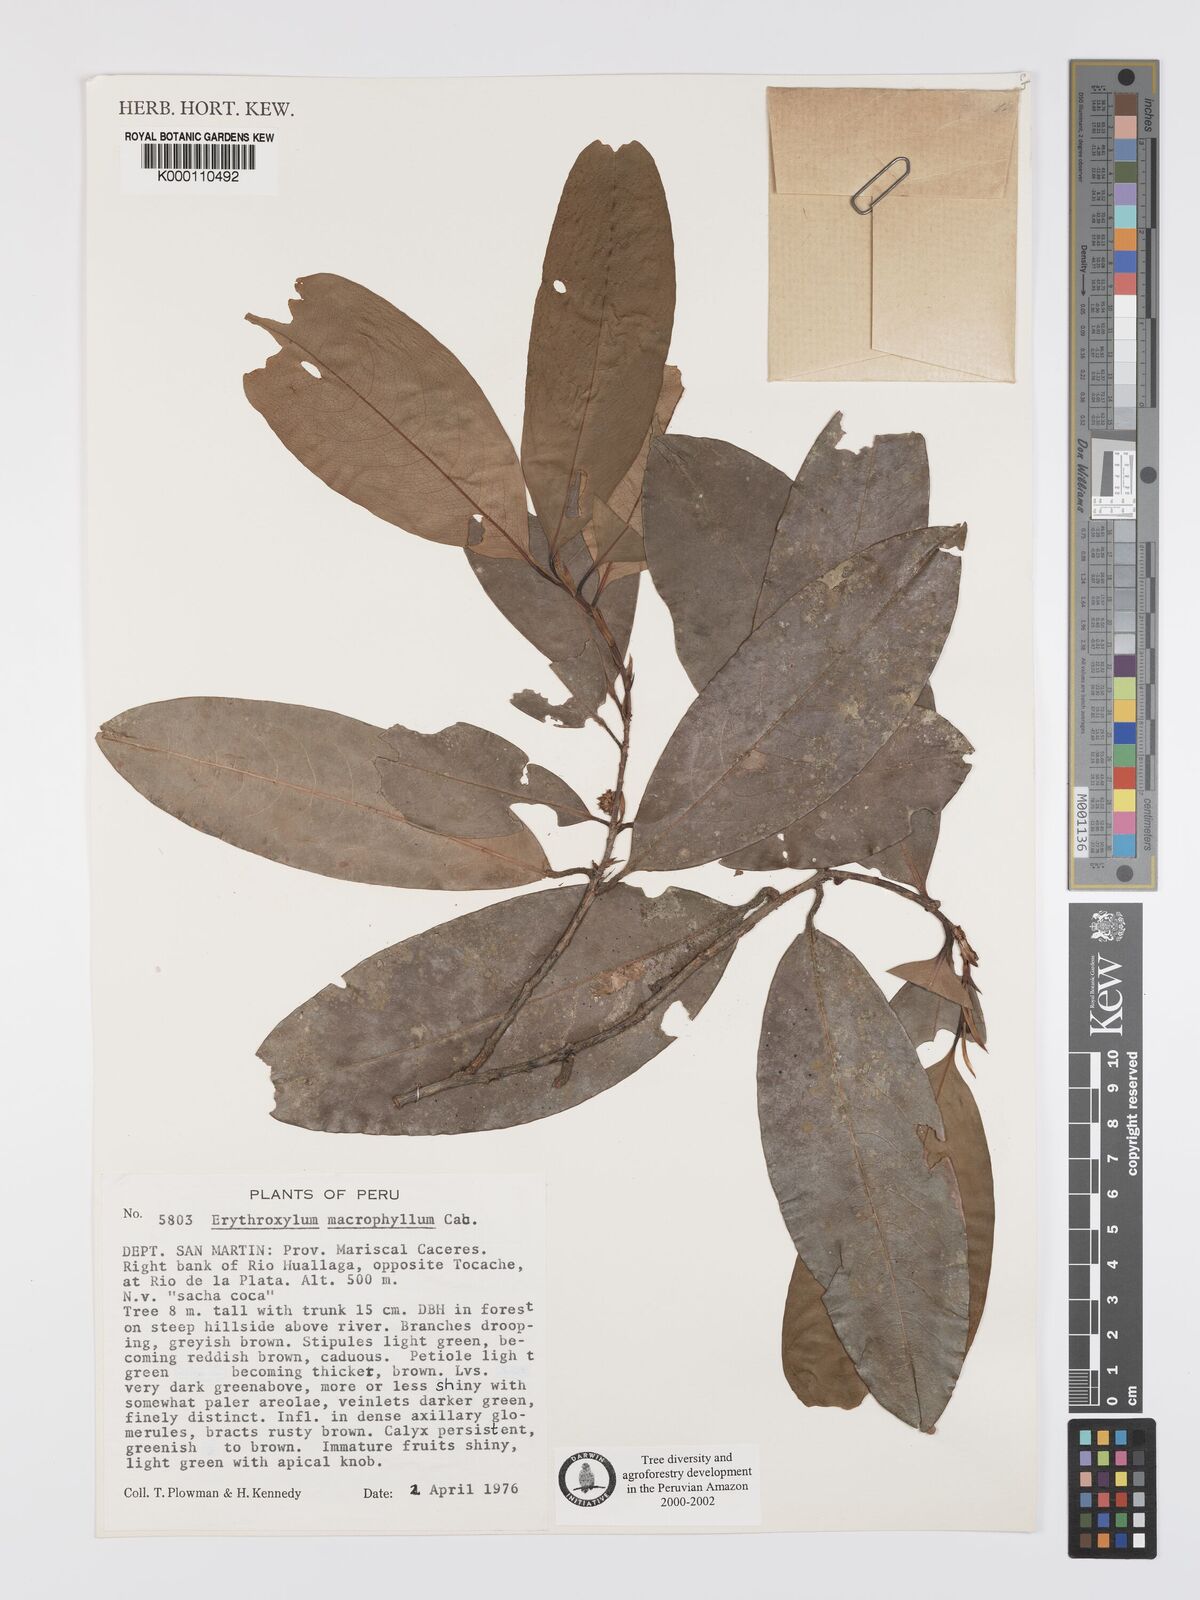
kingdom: Plantae
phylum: Tracheophyta
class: Magnoliopsida
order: Malpighiales
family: Erythroxylaceae
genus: Erythroxylum
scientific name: Erythroxylum
